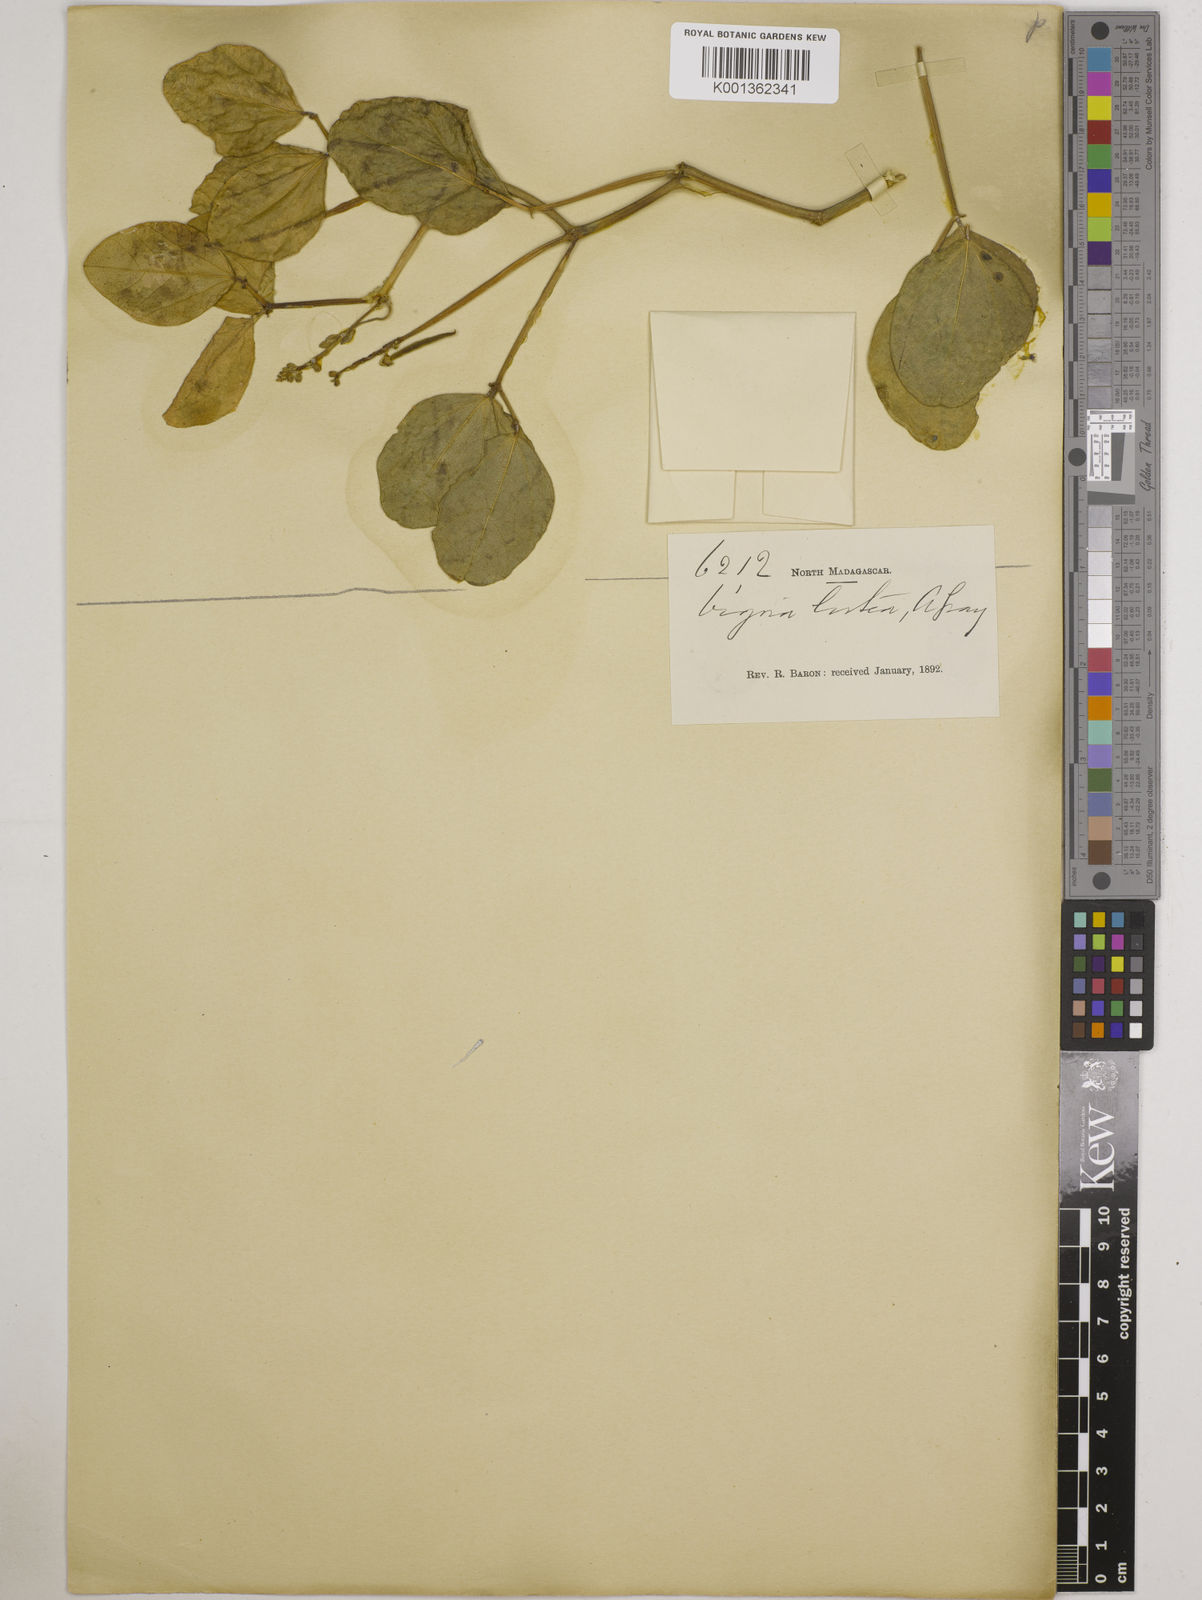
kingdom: Plantae
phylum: Tracheophyta
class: Magnoliopsida
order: Fabales
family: Fabaceae
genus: Vigna
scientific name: Vigna marina
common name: Dune-bean
